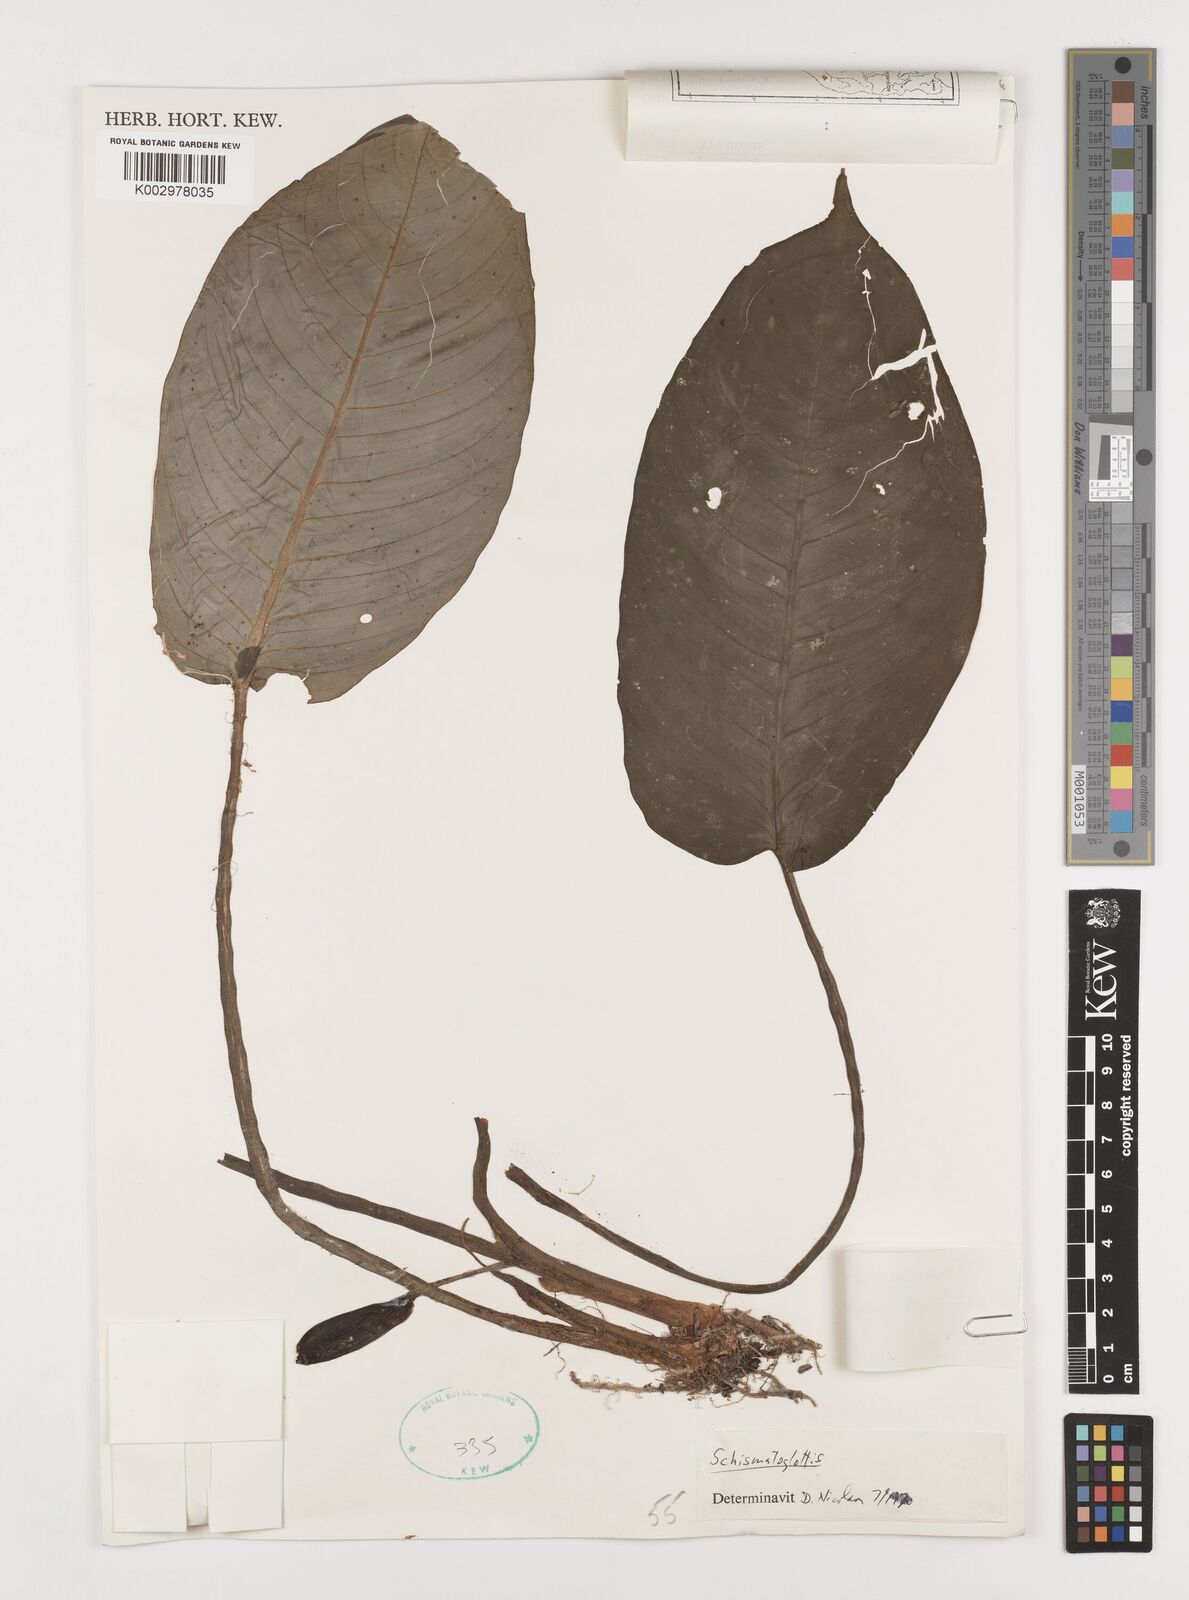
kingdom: Plantae
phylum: Tracheophyta
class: Liliopsida
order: Alismatales
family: Araceae
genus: Schismatoglottis
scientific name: Schismatoglottis motleyana
